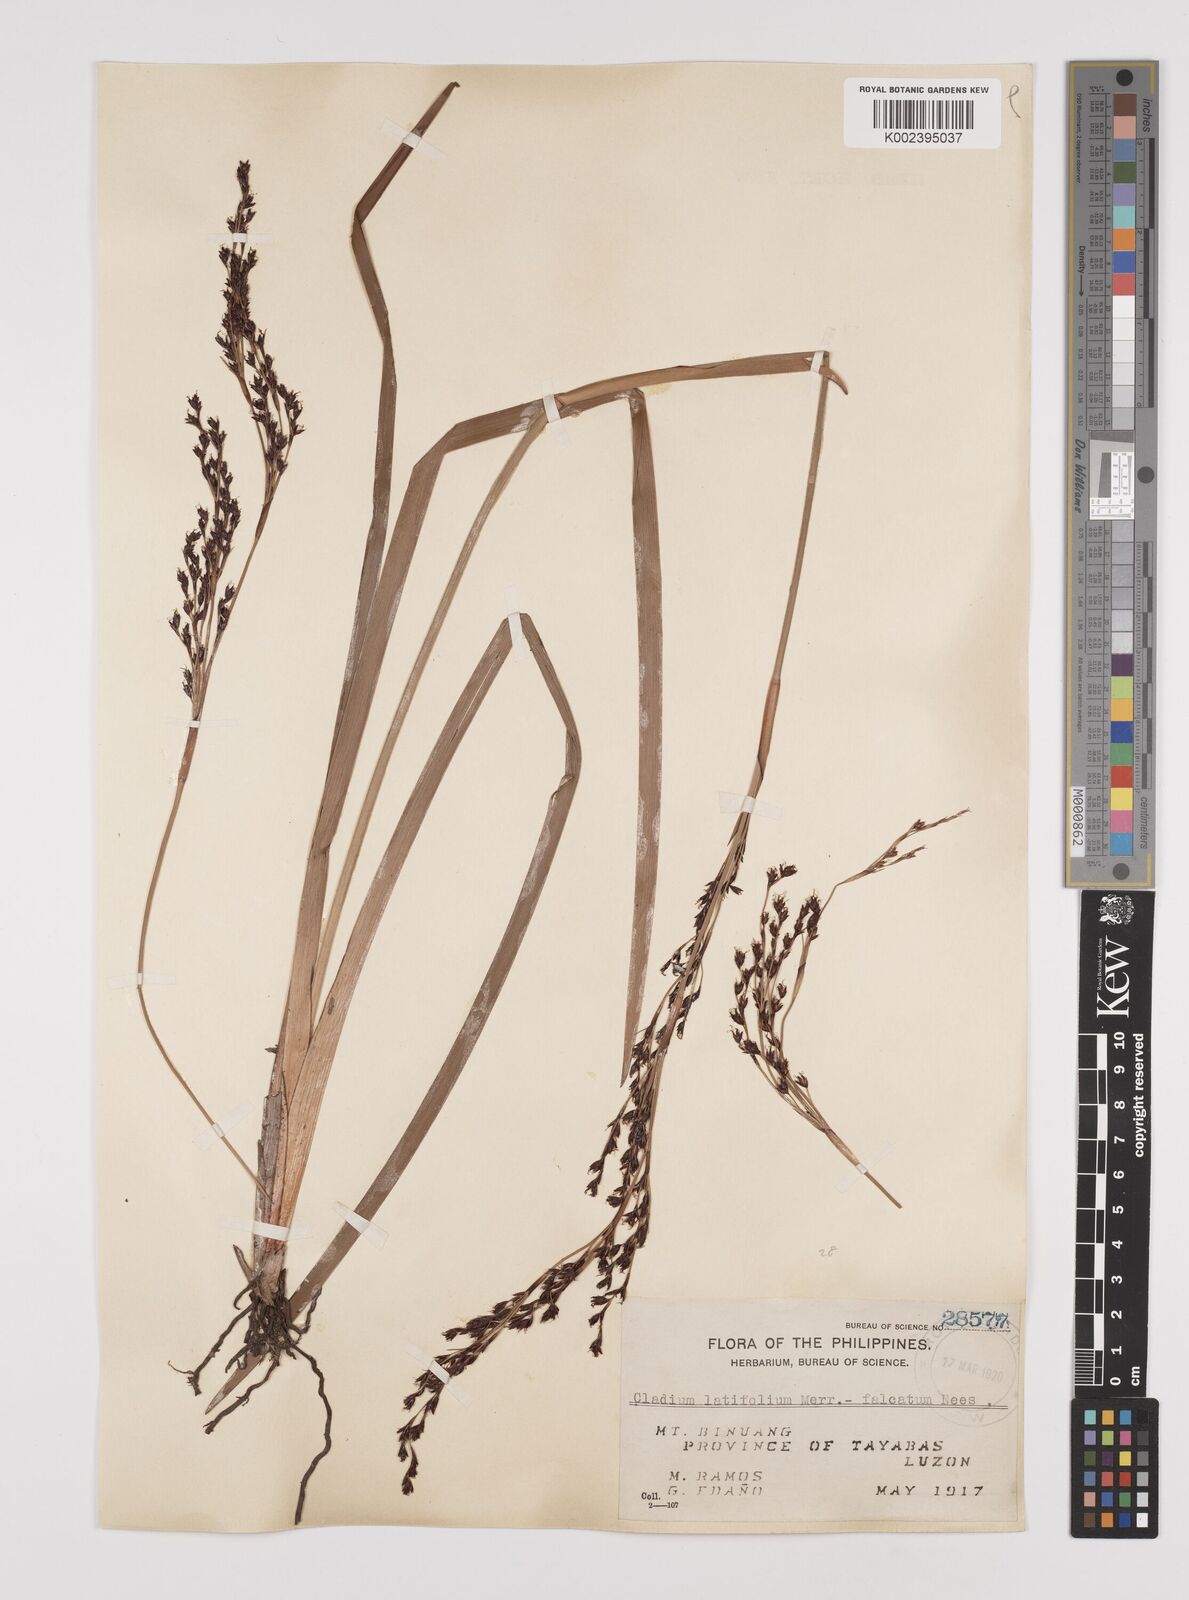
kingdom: Plantae
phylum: Tracheophyta
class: Liliopsida
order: Poales
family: Cyperaceae
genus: Machaerina
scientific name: Machaerina sinclairii
